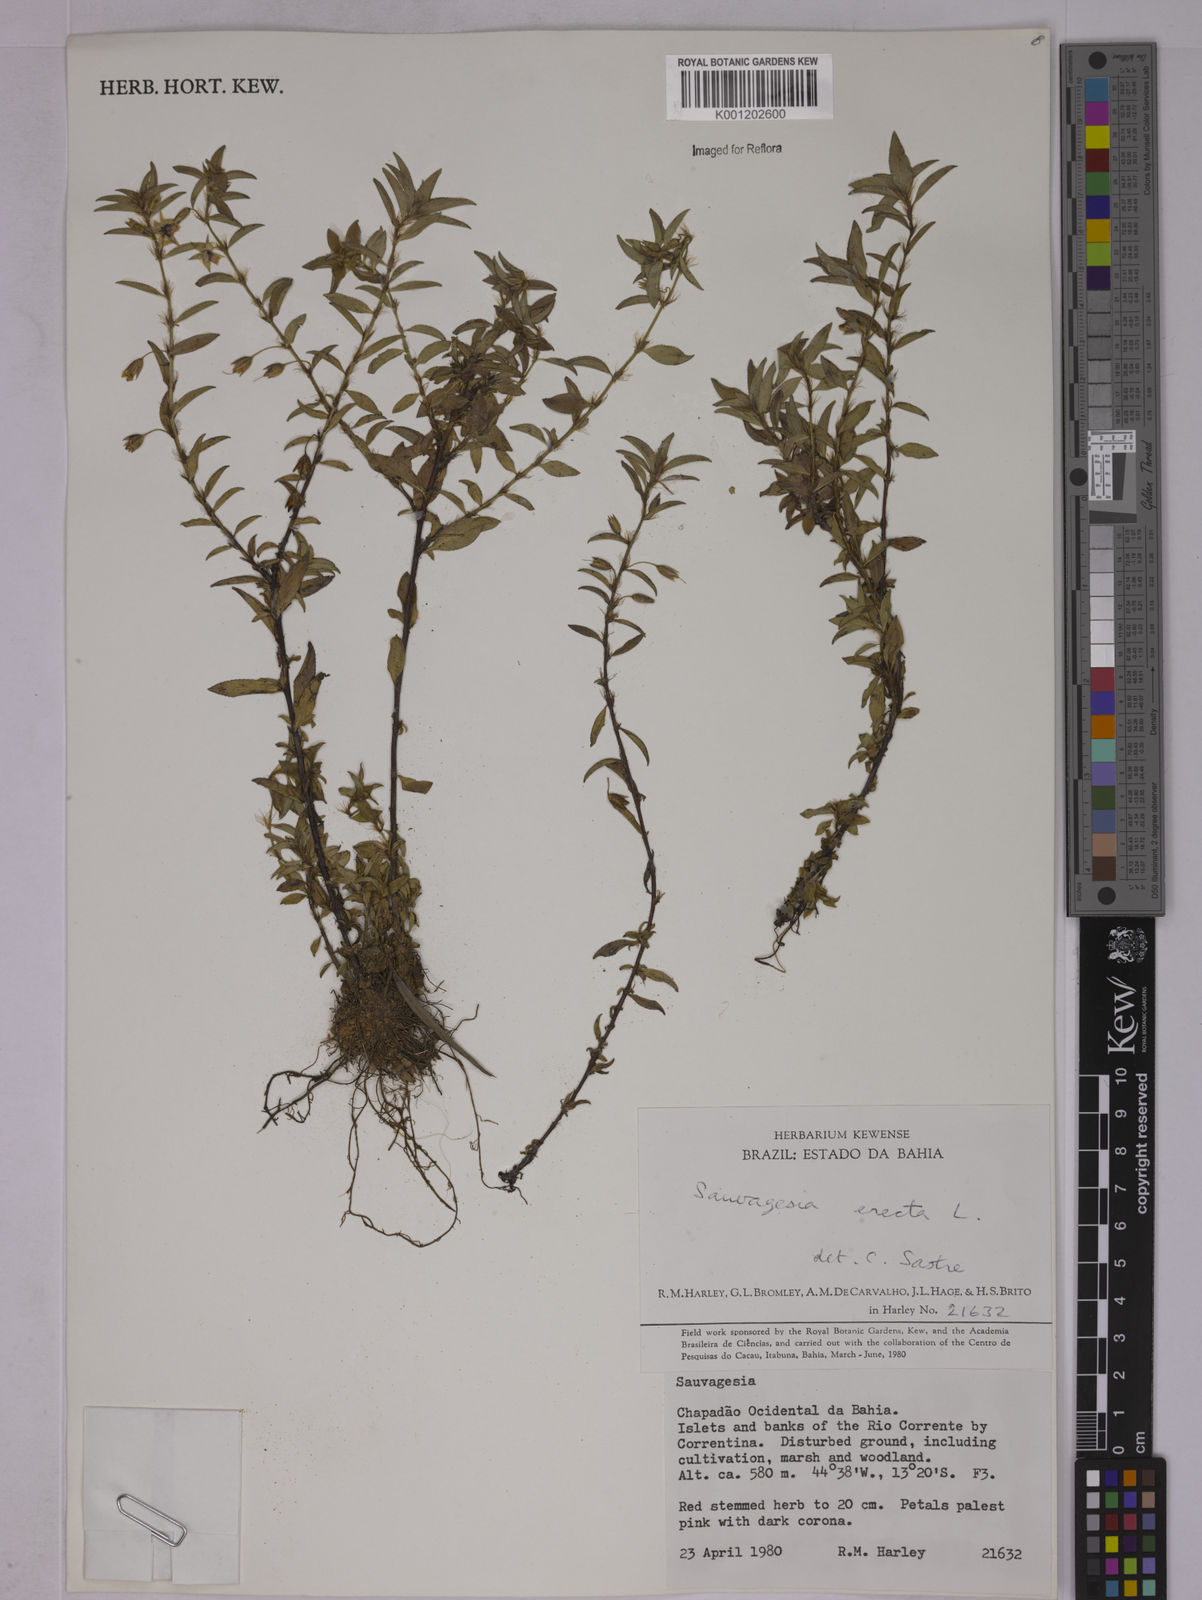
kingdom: Plantae
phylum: Tracheophyta
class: Magnoliopsida
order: Malpighiales
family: Ochnaceae
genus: Sauvagesia
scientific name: Sauvagesia erecta
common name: Creole tea
